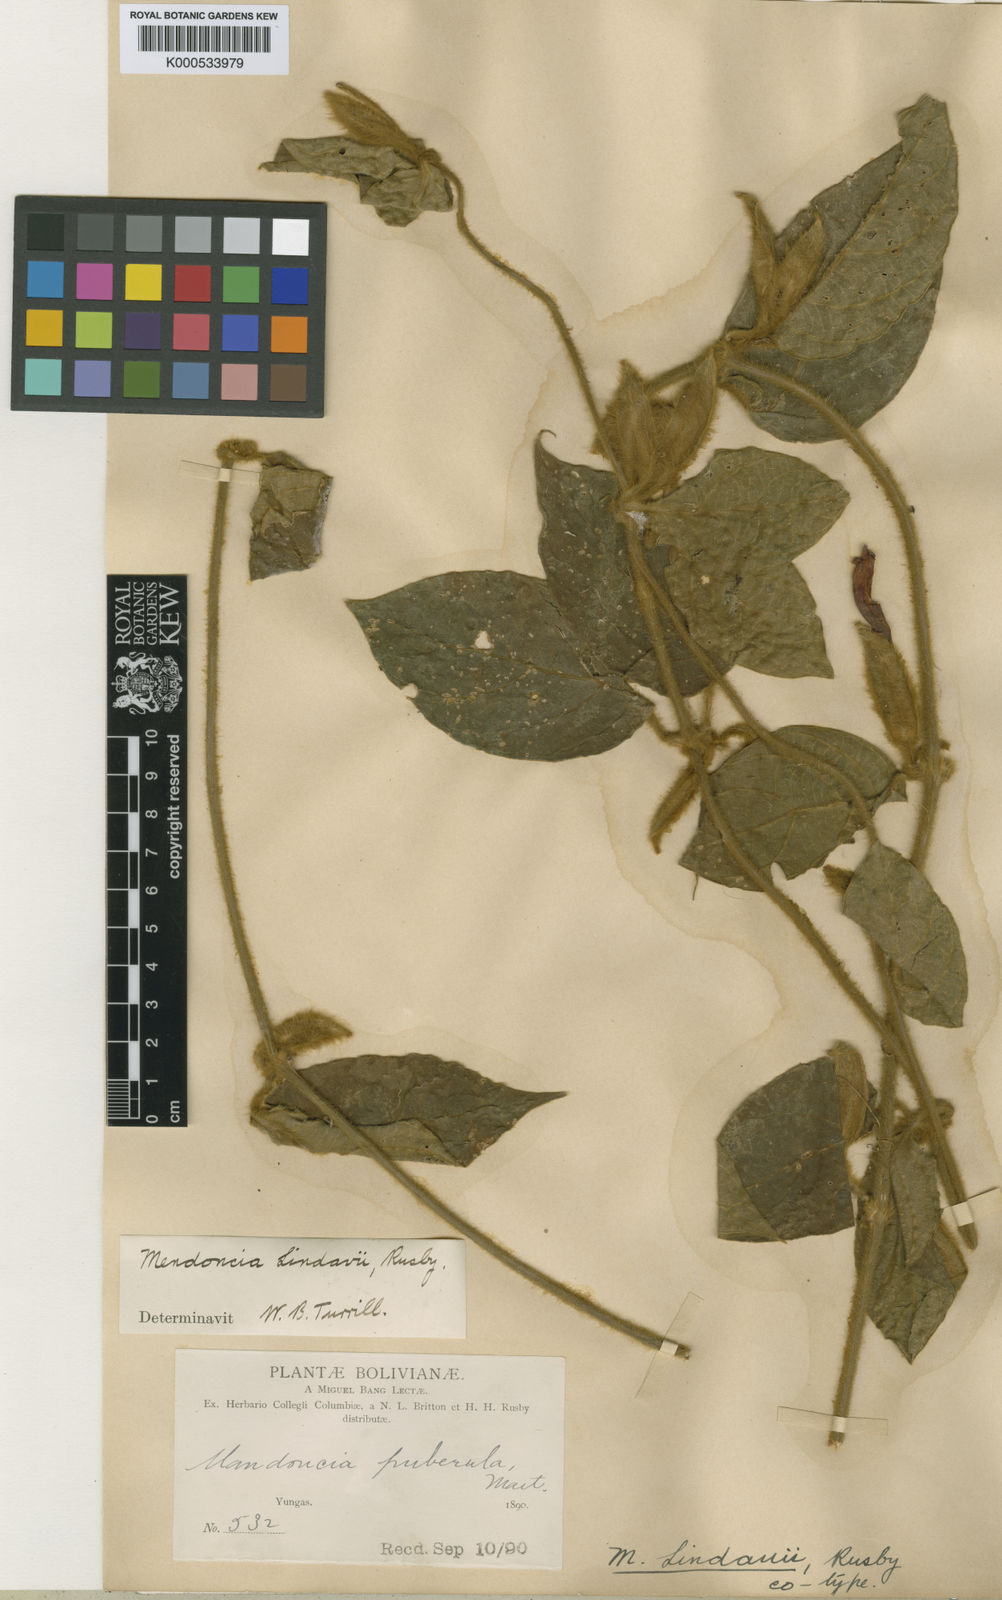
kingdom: Plantae
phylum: Tracheophyta
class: Magnoliopsida
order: Lamiales
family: Acanthaceae
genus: Mendoncia
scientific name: Mendoncia lindavii
